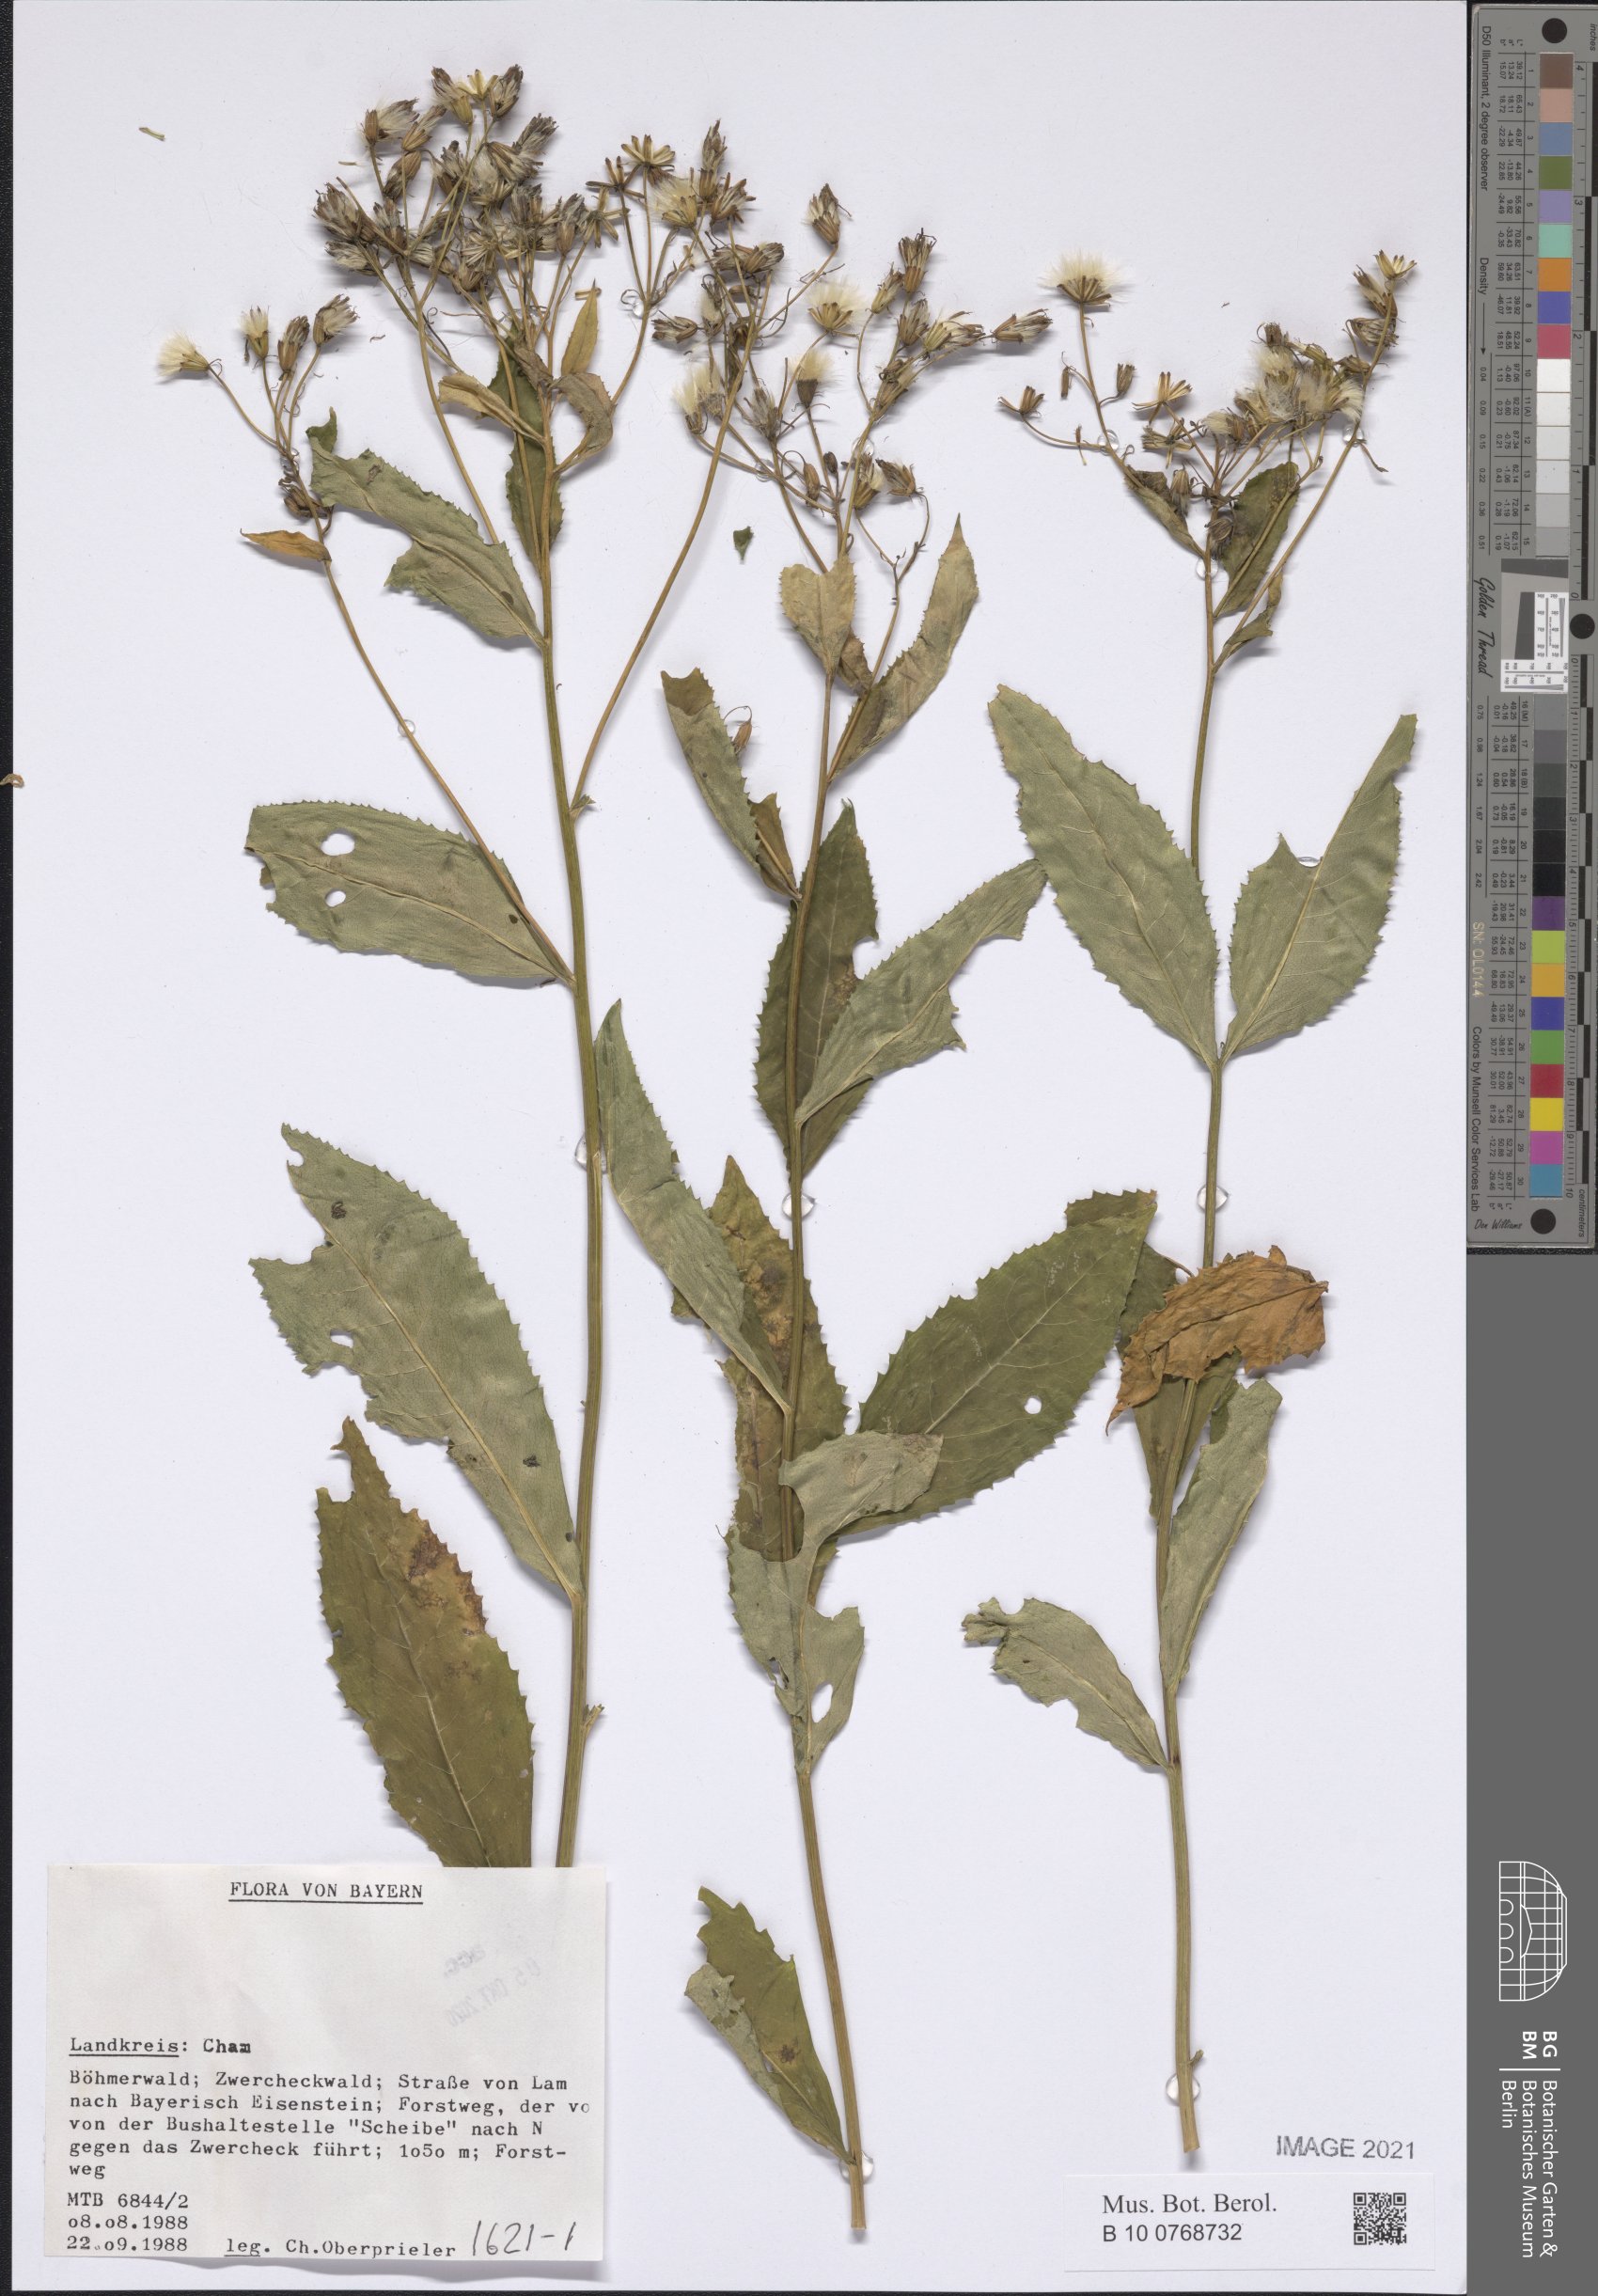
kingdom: Plantae
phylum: Tracheophyta
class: Magnoliopsida
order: Asterales
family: Asteraceae
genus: Senecio
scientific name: Senecio
